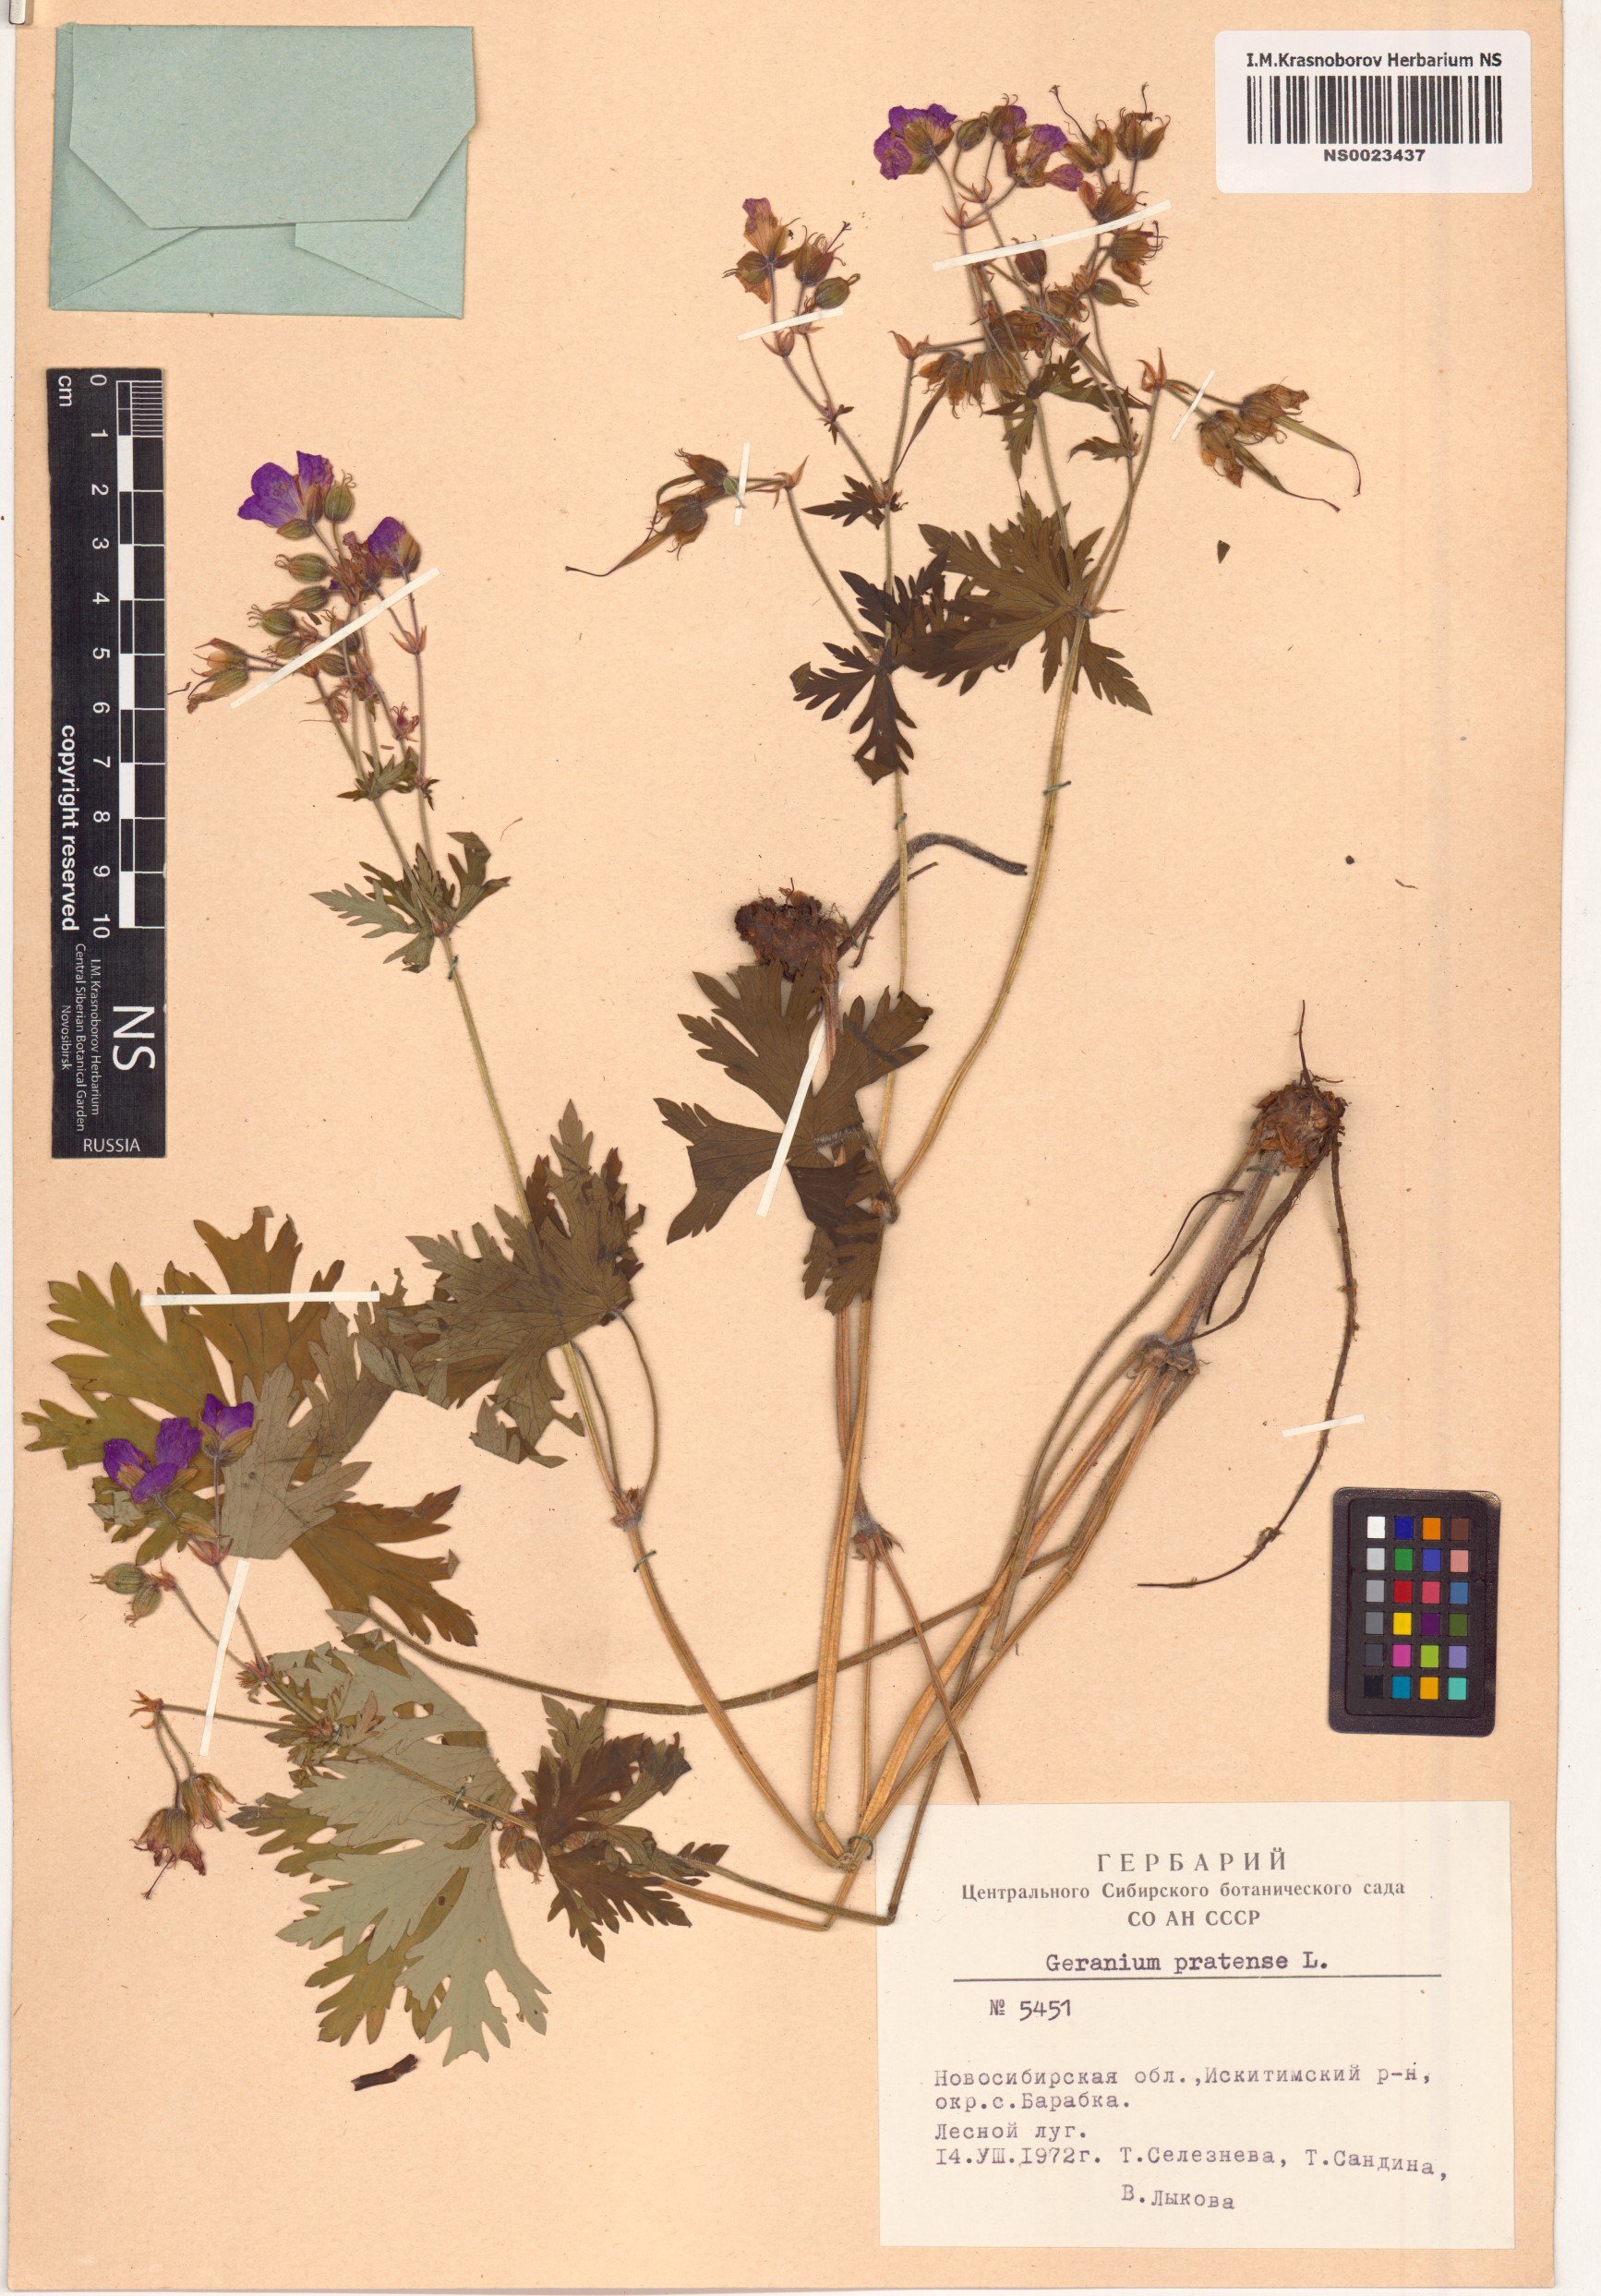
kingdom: Plantae
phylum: Tracheophyta
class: Magnoliopsida
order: Geraniales
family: Geraniaceae
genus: Geranium
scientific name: Geranium pratense
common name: Meadow crane's-bill
